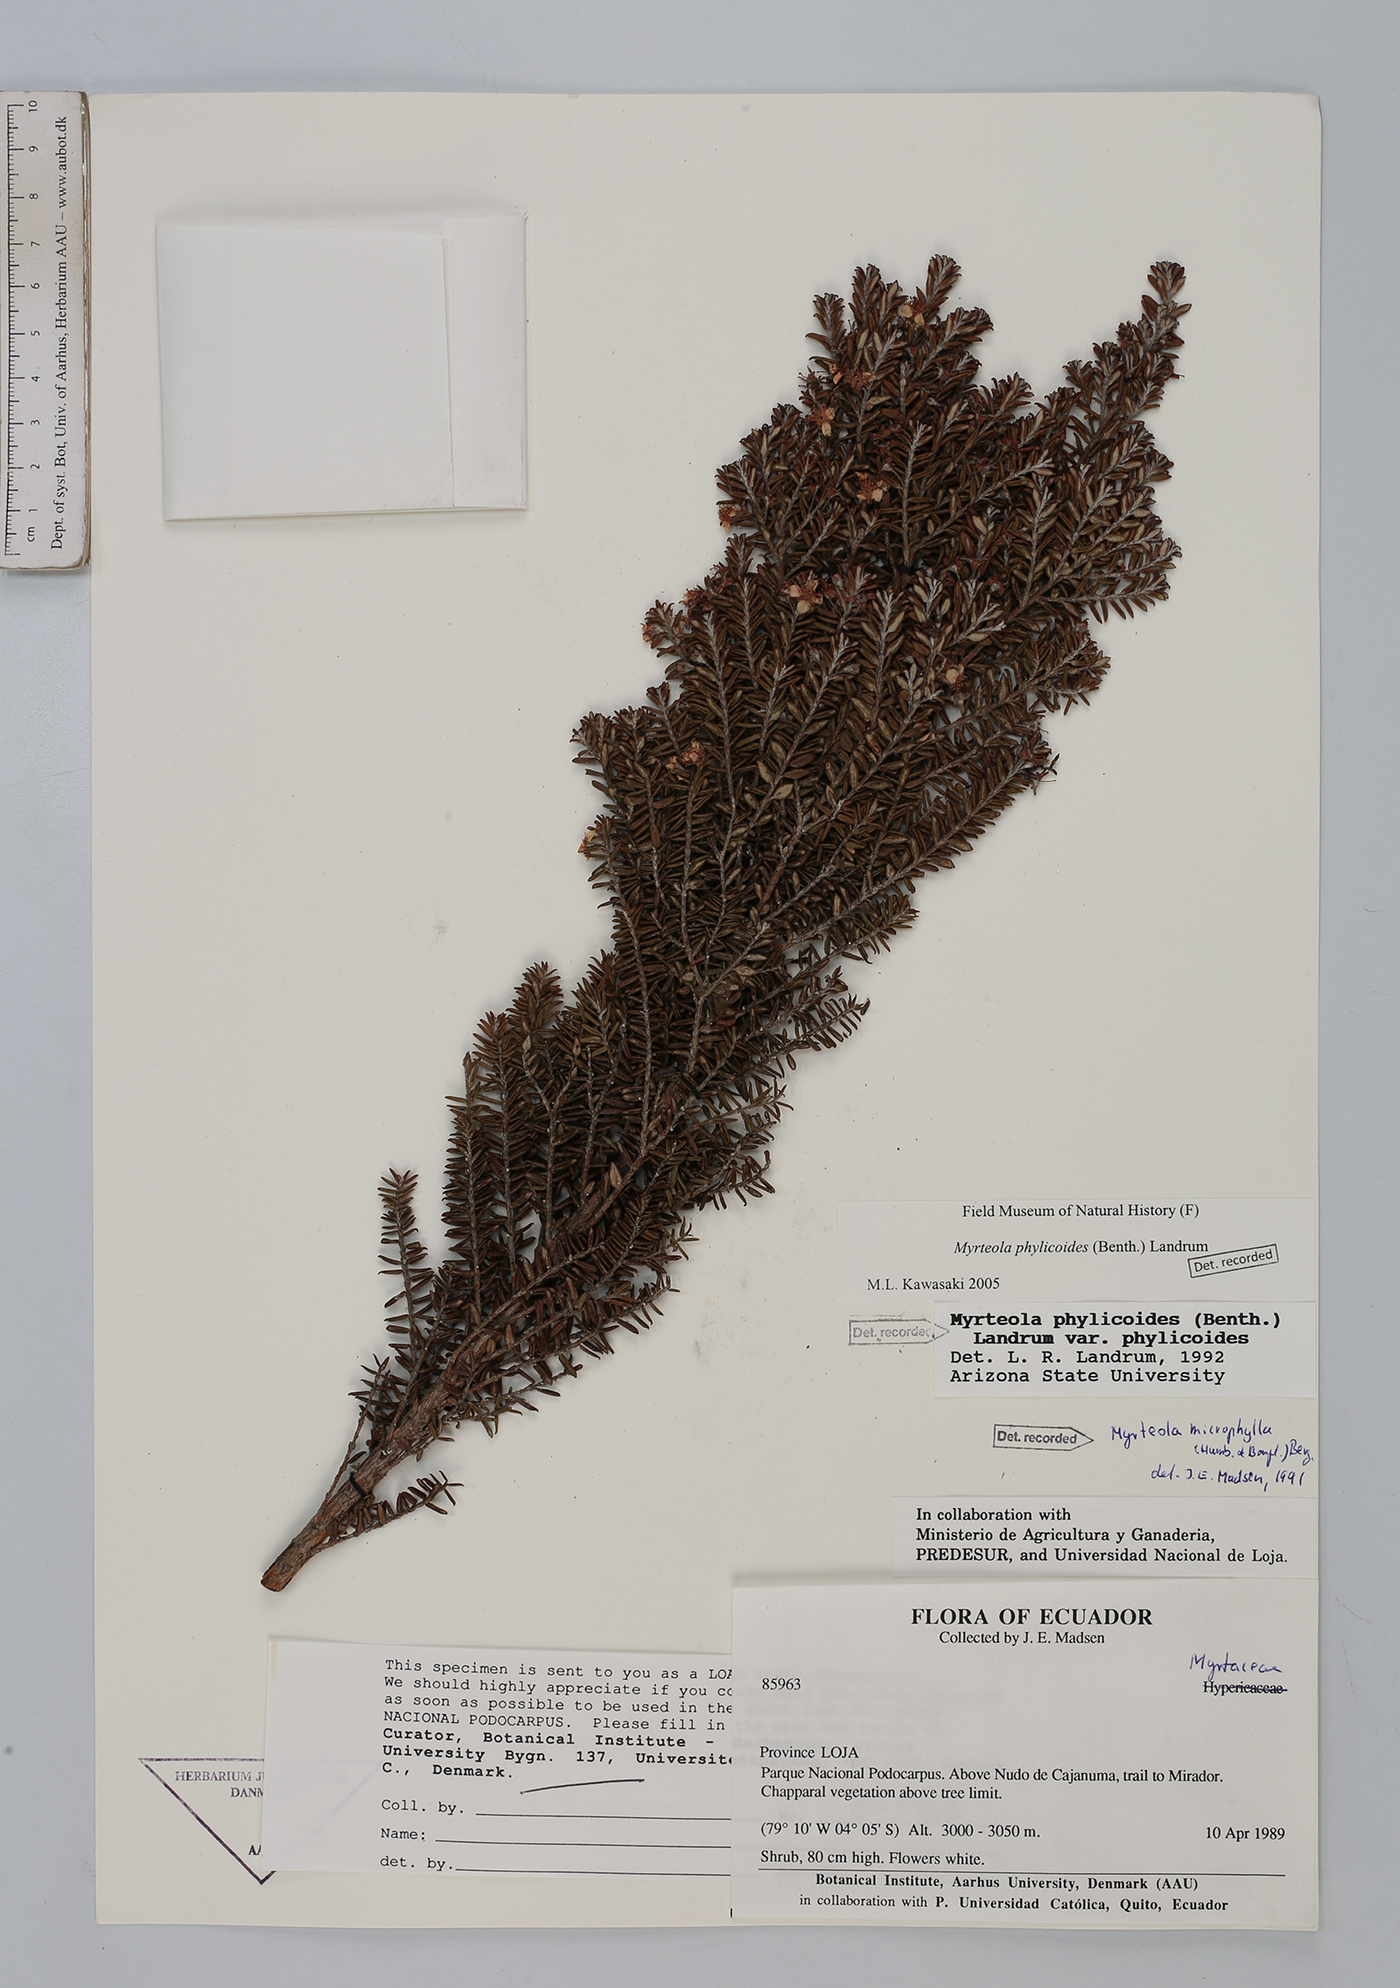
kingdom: Plantae
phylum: Tracheophyta
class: Magnoliopsida
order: Myrtales
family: Myrtaceae
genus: Myrteola
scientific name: Myrteola phylicoides
